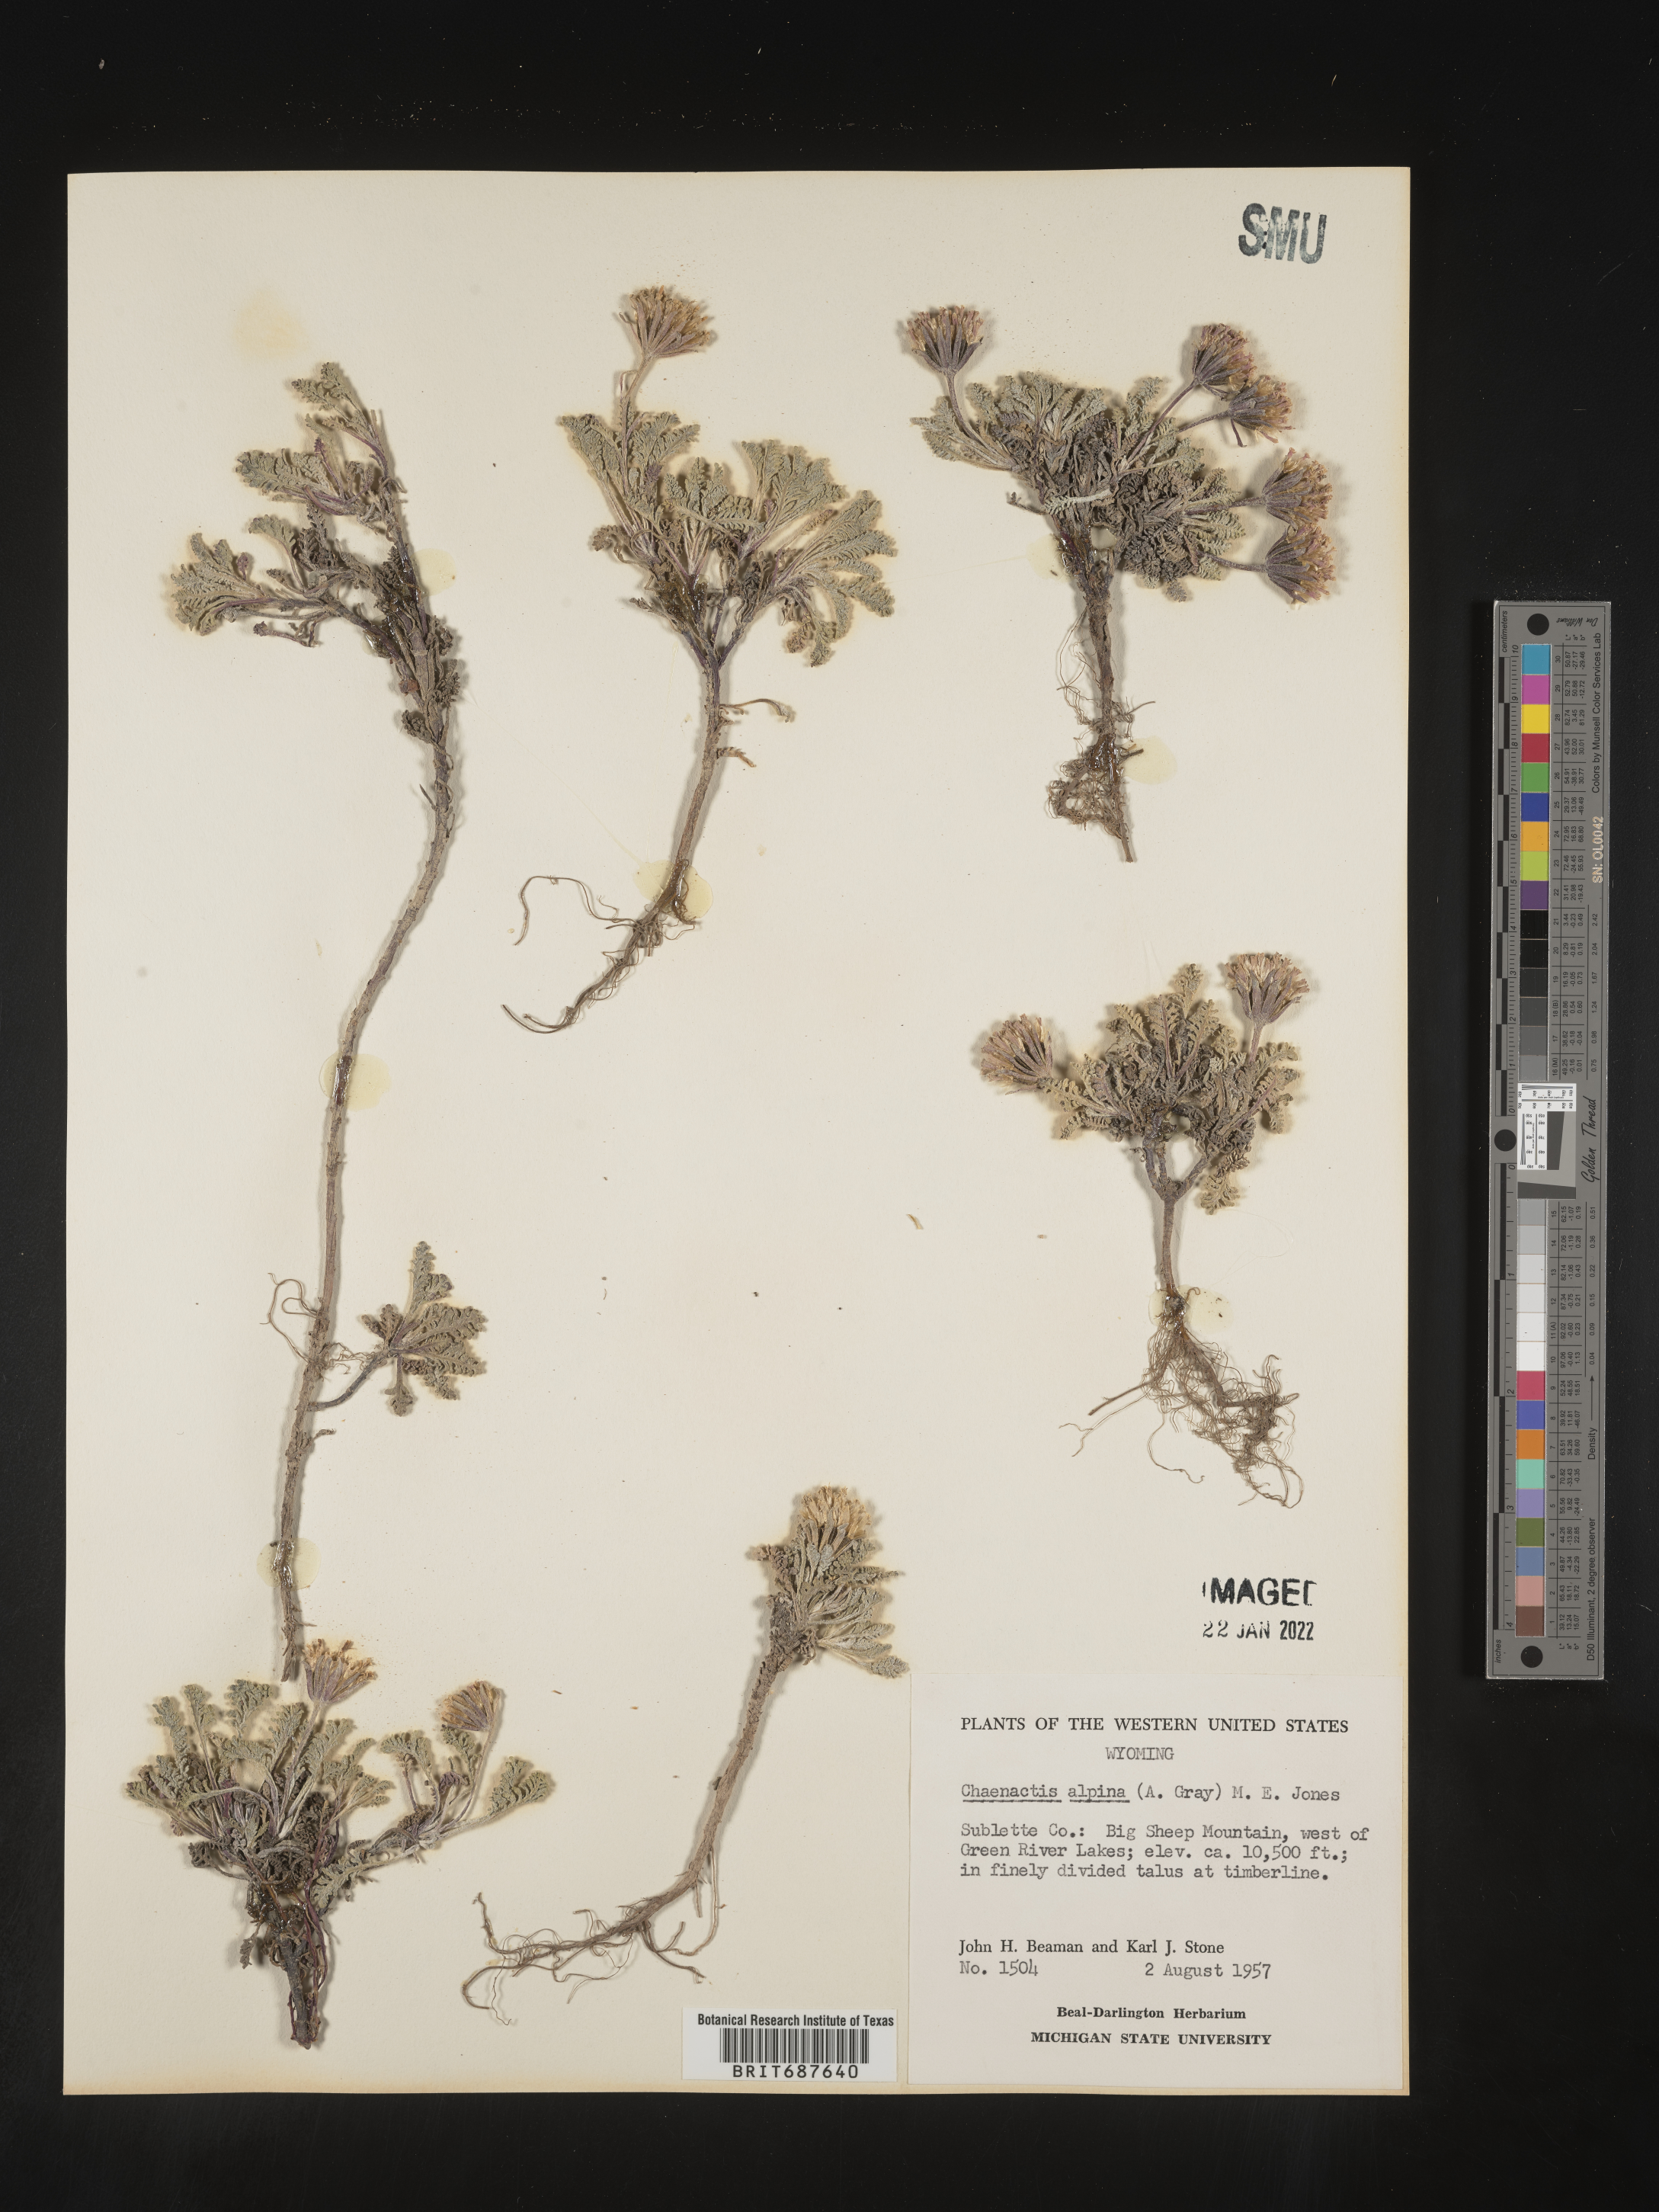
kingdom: Plantae
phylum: Tracheophyta
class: Magnoliopsida
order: Asterales
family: Asteraceae
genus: Chaenactis
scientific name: Chaenactis
